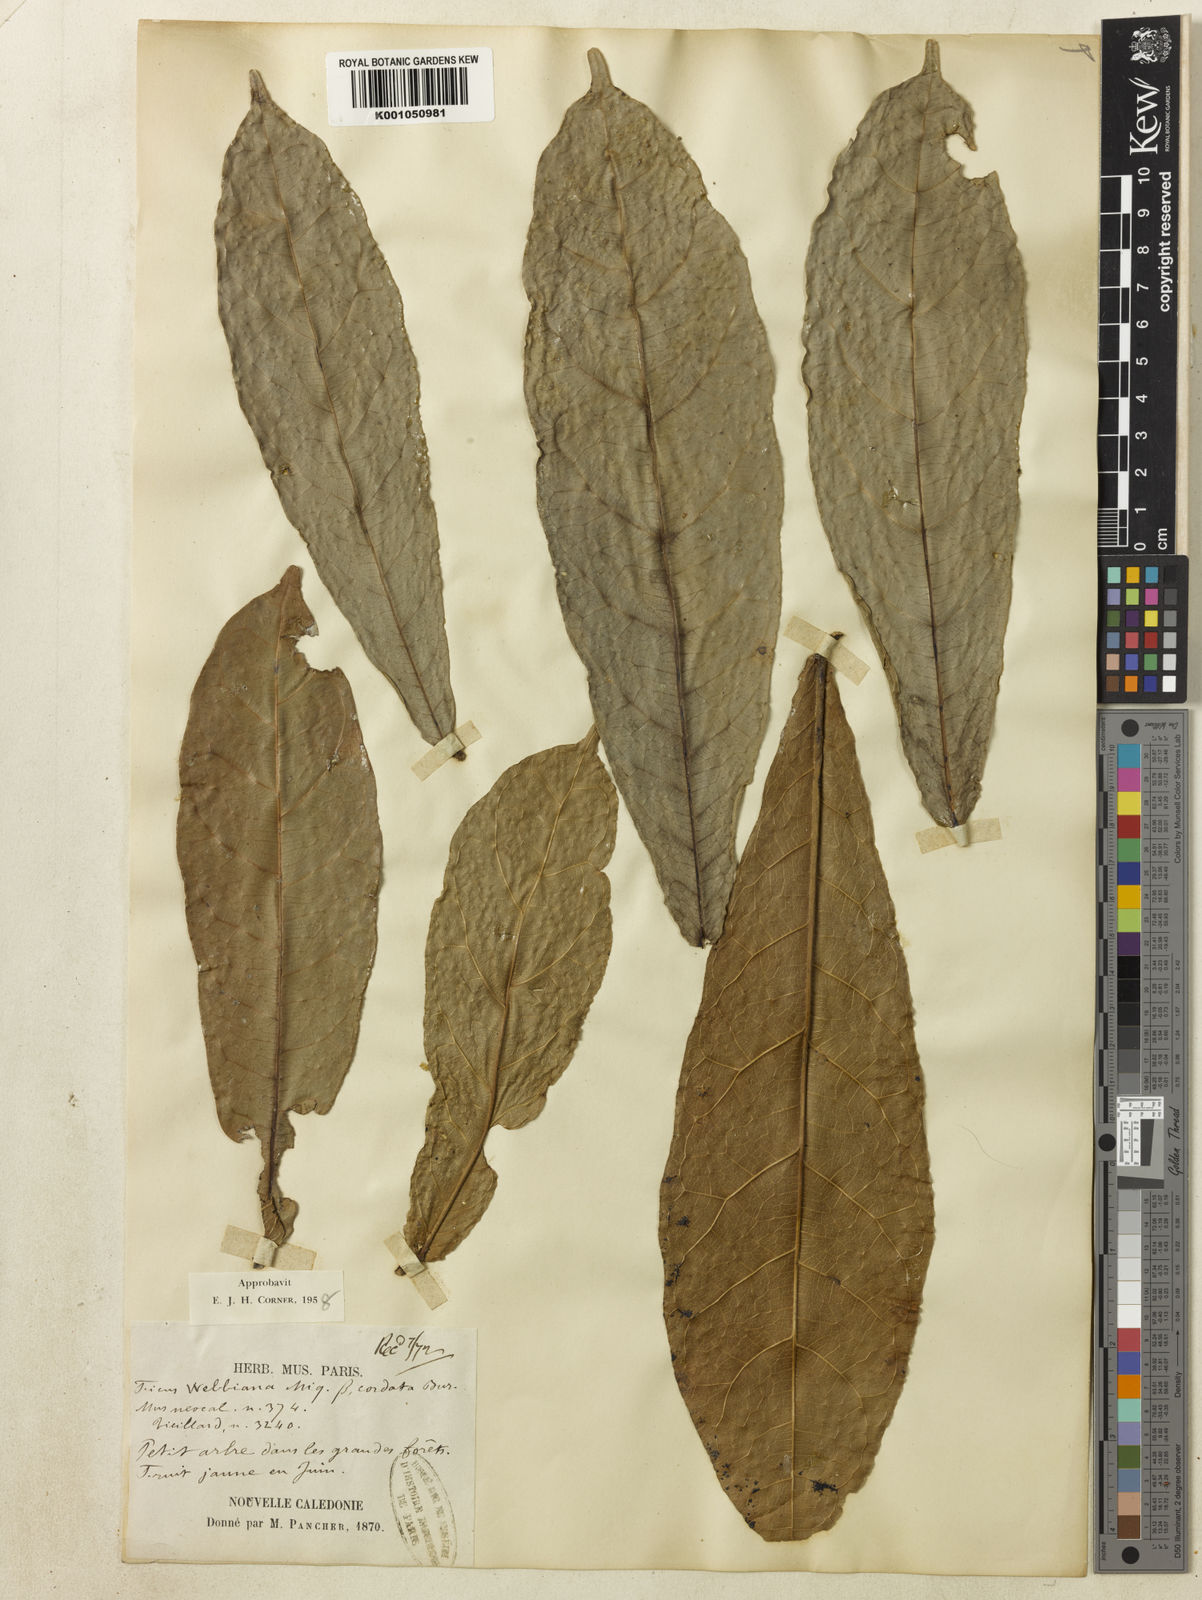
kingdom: Plantae
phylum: Tracheophyta
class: Magnoliopsida
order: Rosales
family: Moraceae
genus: Ficus
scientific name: Ficus webbiana
